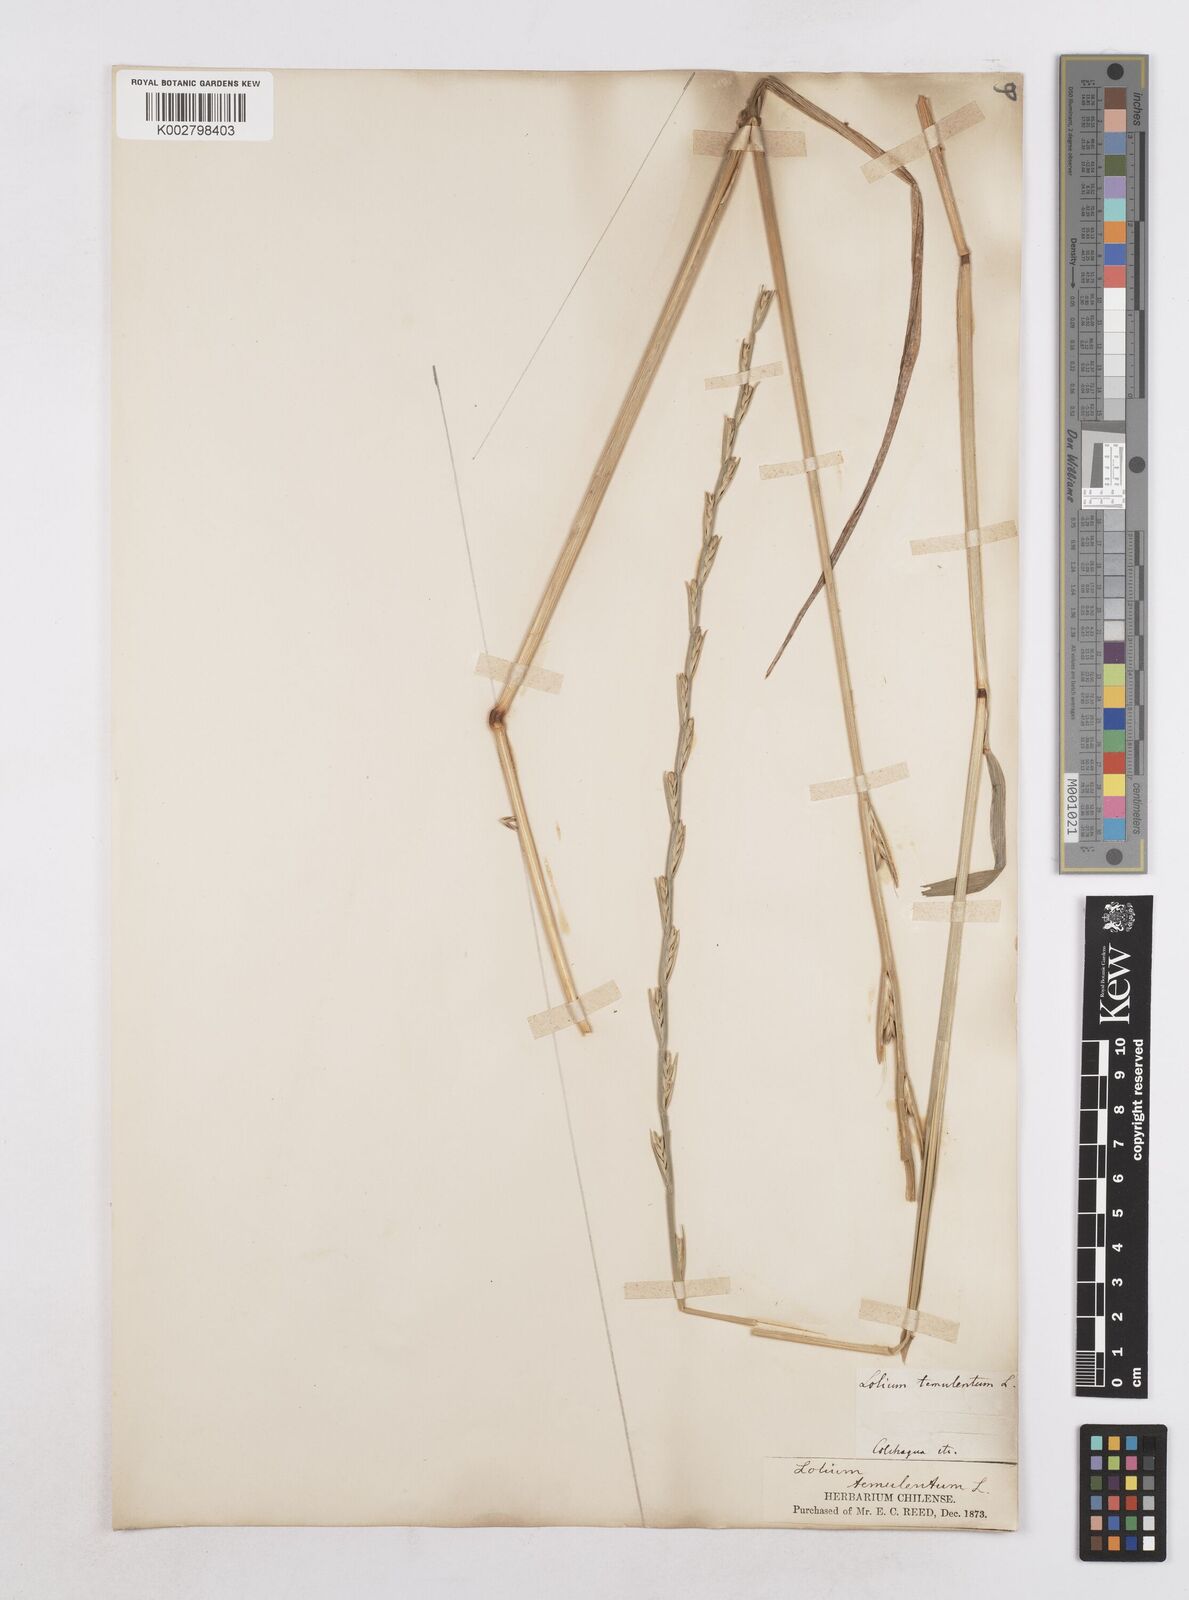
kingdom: Plantae
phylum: Tracheophyta
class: Liliopsida
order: Poales
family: Poaceae
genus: Lolium
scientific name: Lolium temulentum
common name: Darnel
